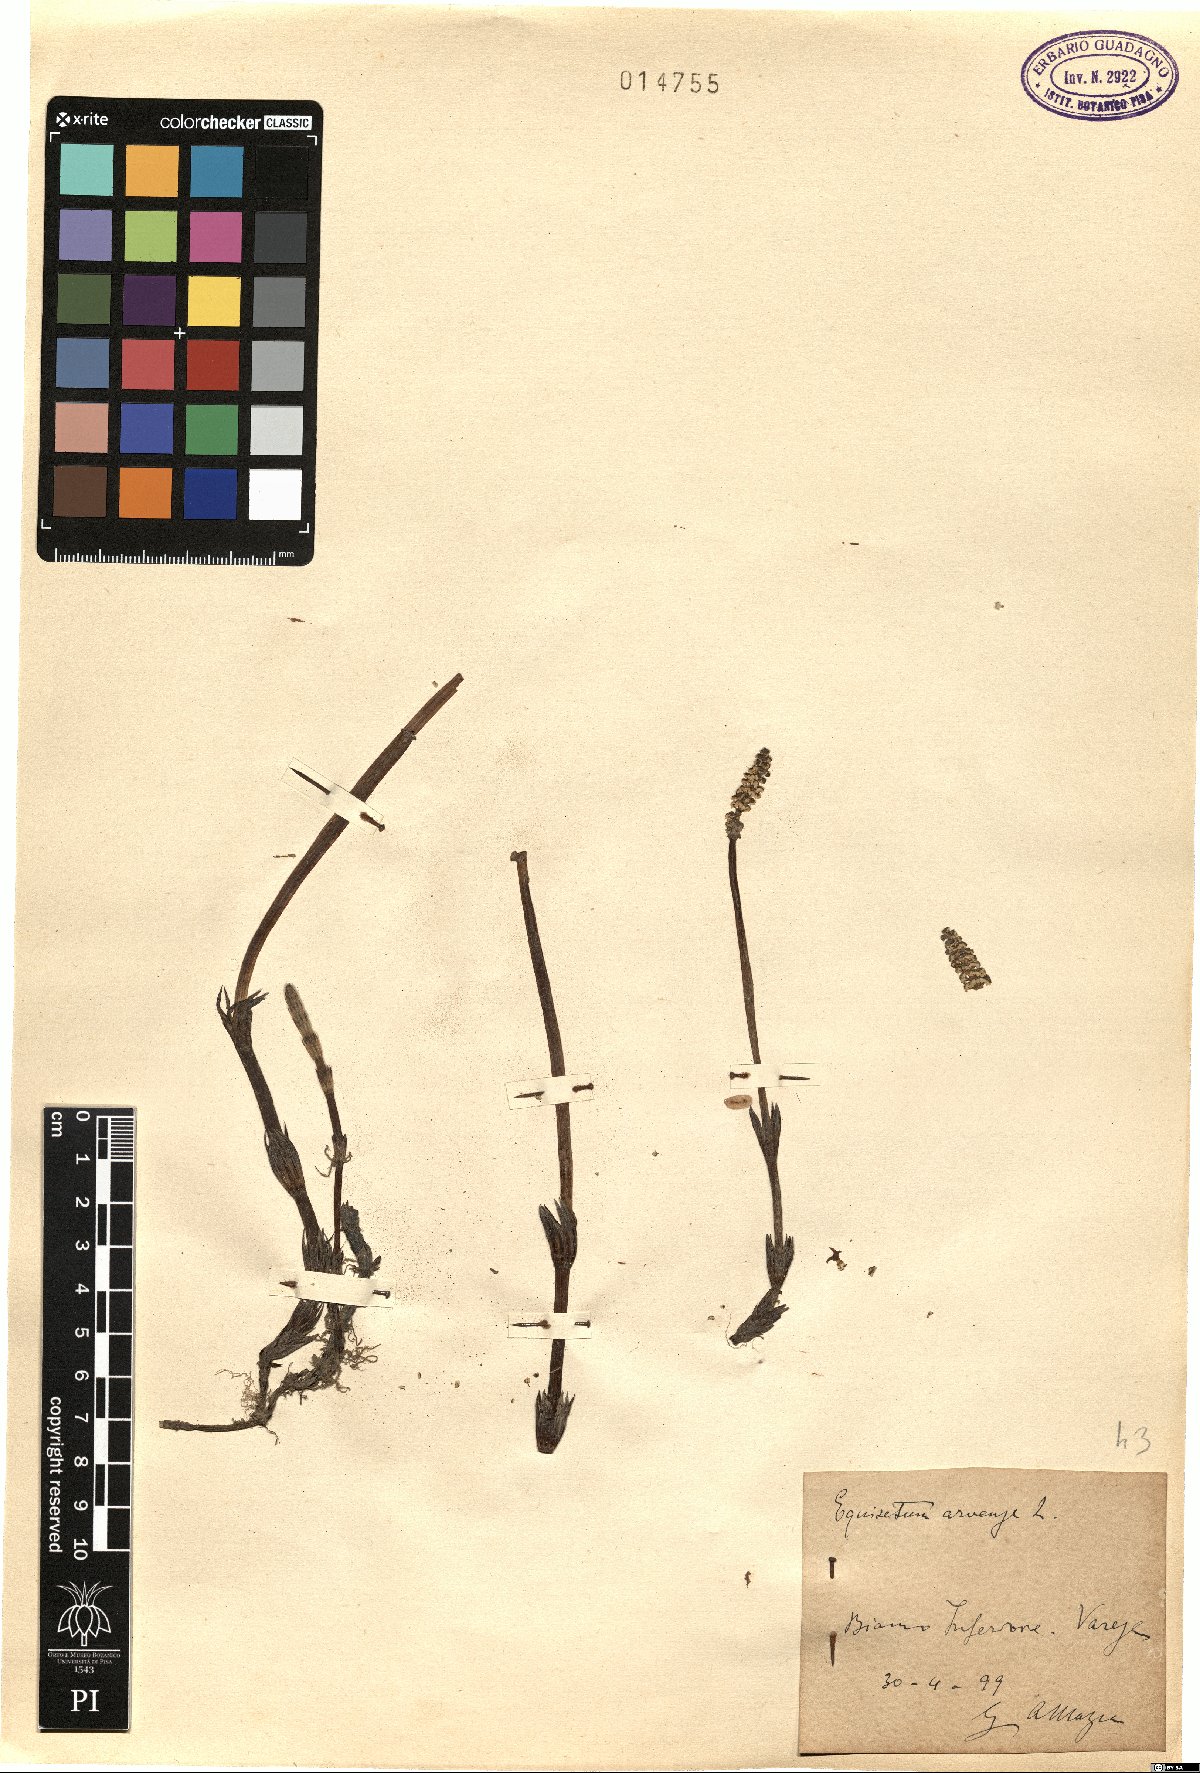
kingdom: Plantae
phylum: Tracheophyta
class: Polypodiopsida
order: Equisetales
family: Equisetaceae
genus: Equisetum
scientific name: Equisetum arvense
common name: Field horsetail
